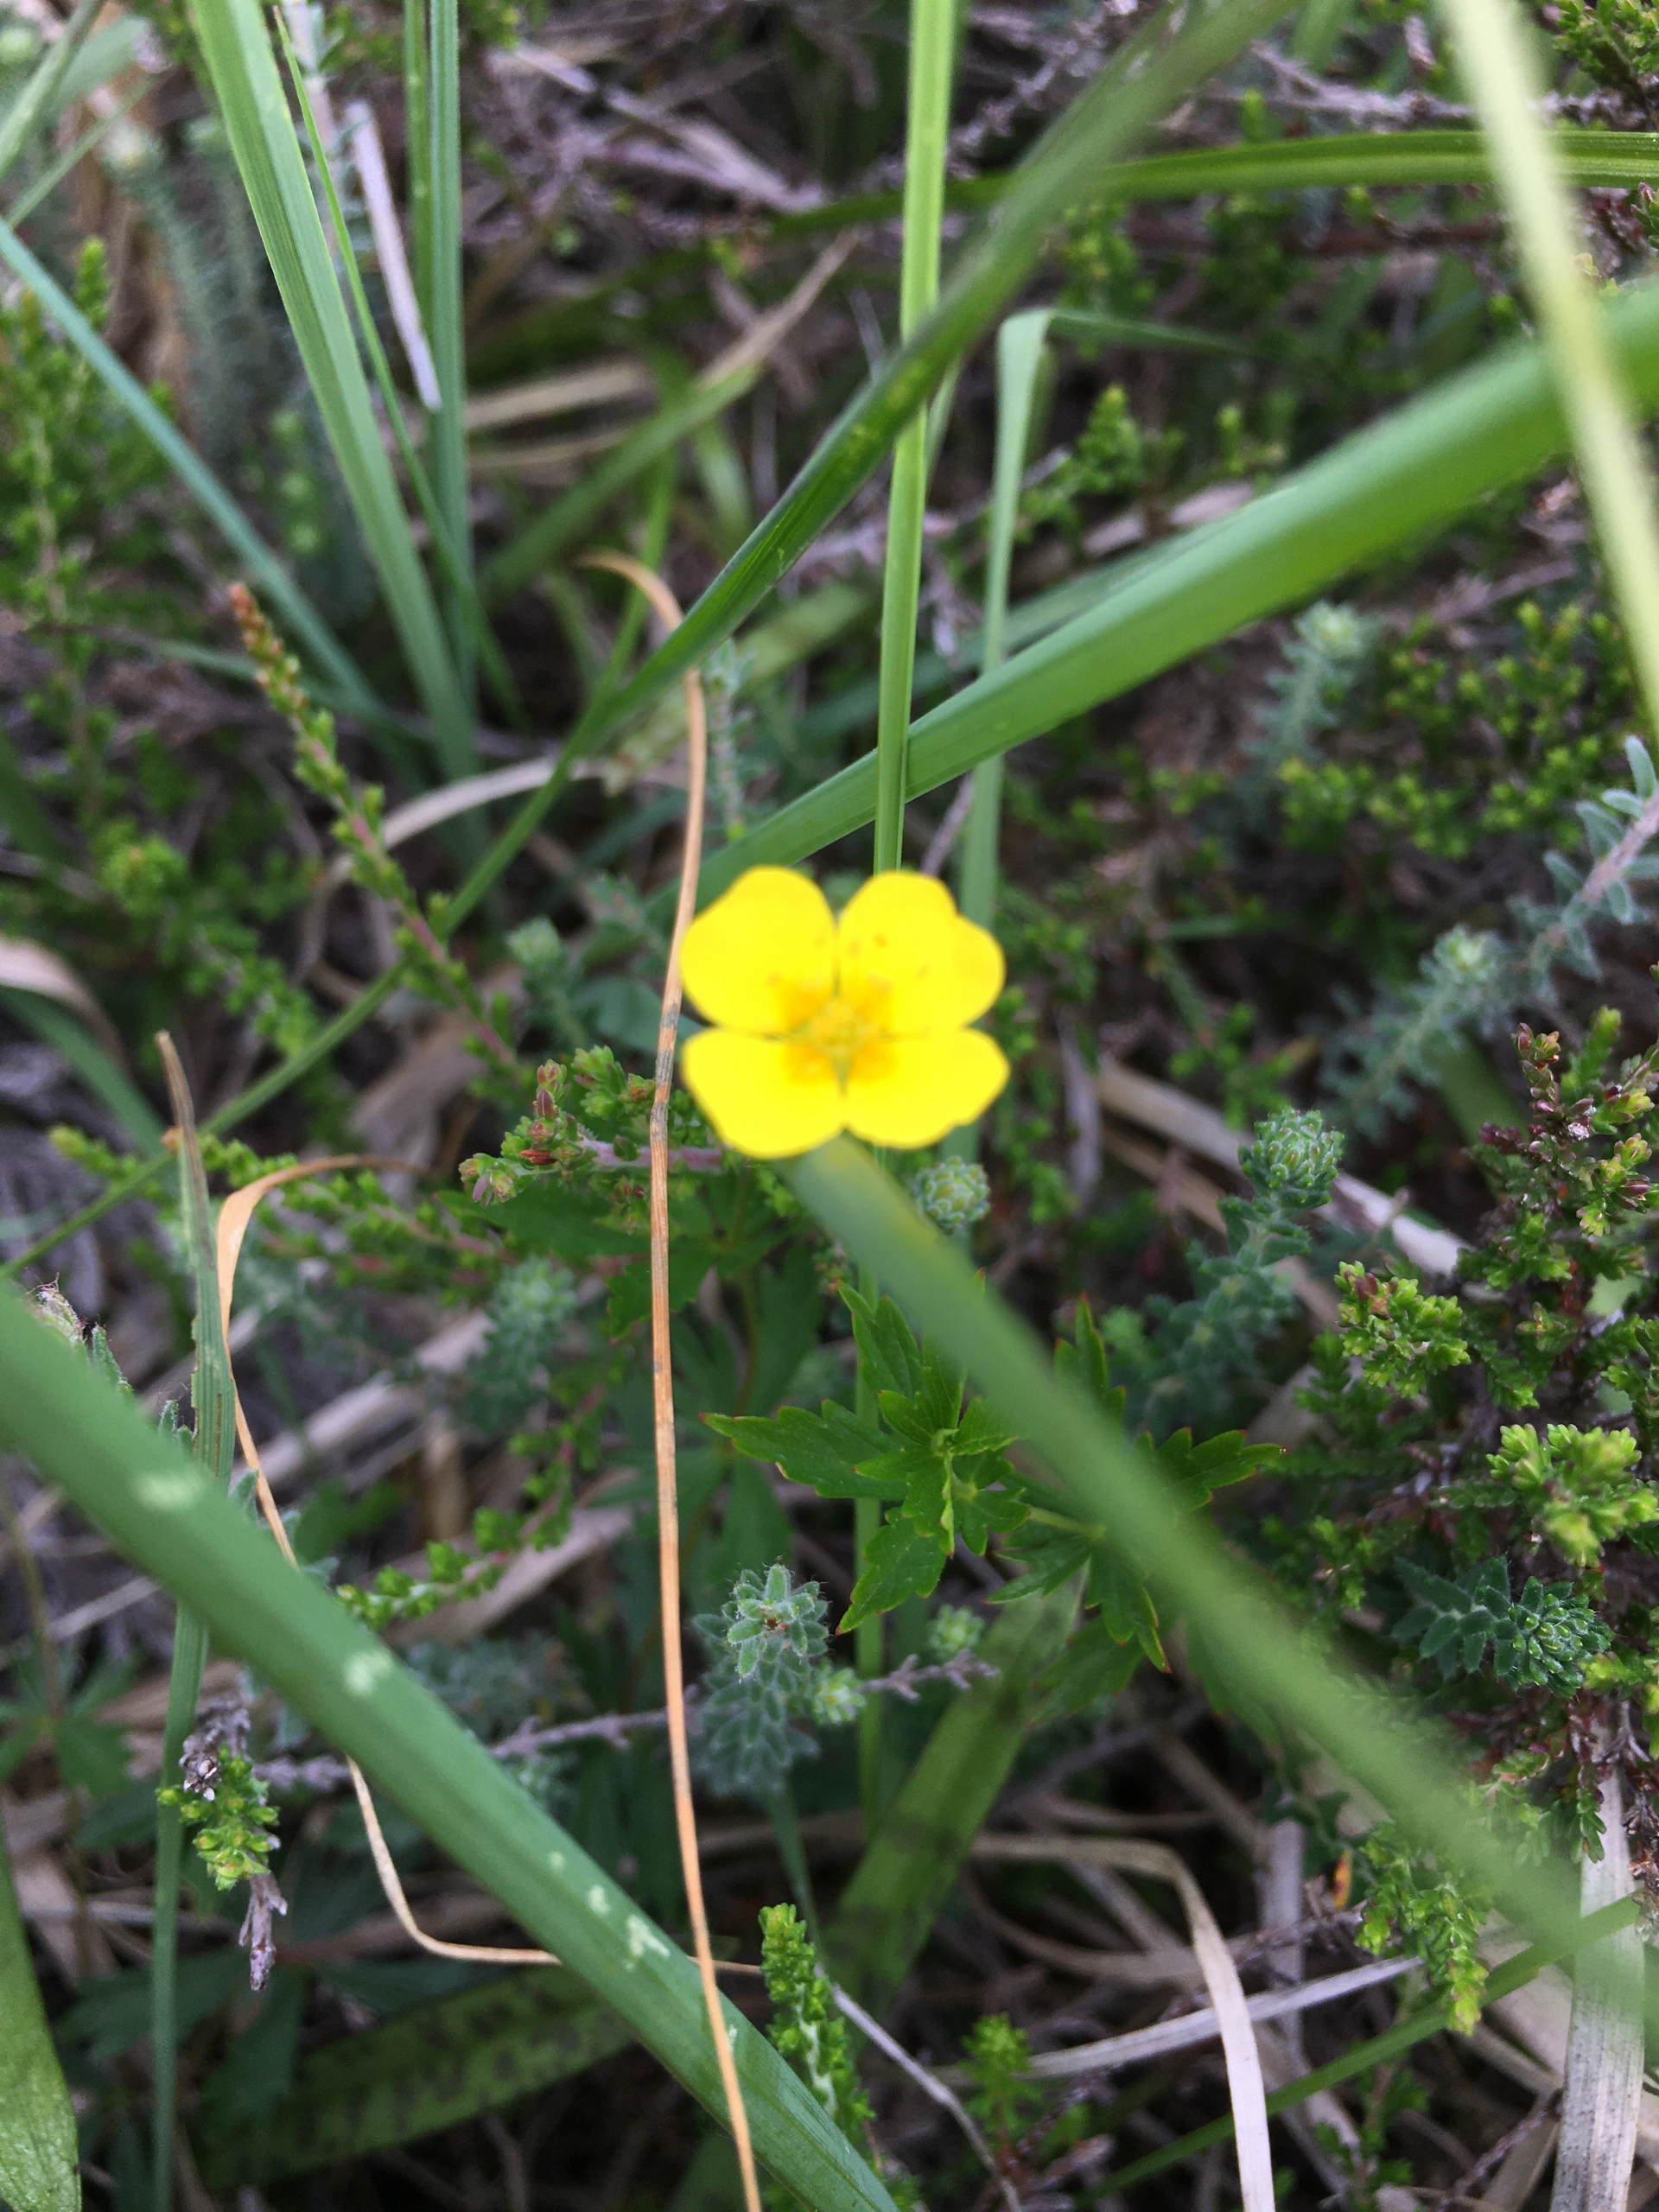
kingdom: Plantae
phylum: Tracheophyta
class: Magnoliopsida
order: Rosales
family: Rosaceae
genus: Potentilla
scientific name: Potentilla erecta
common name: Tormentil
